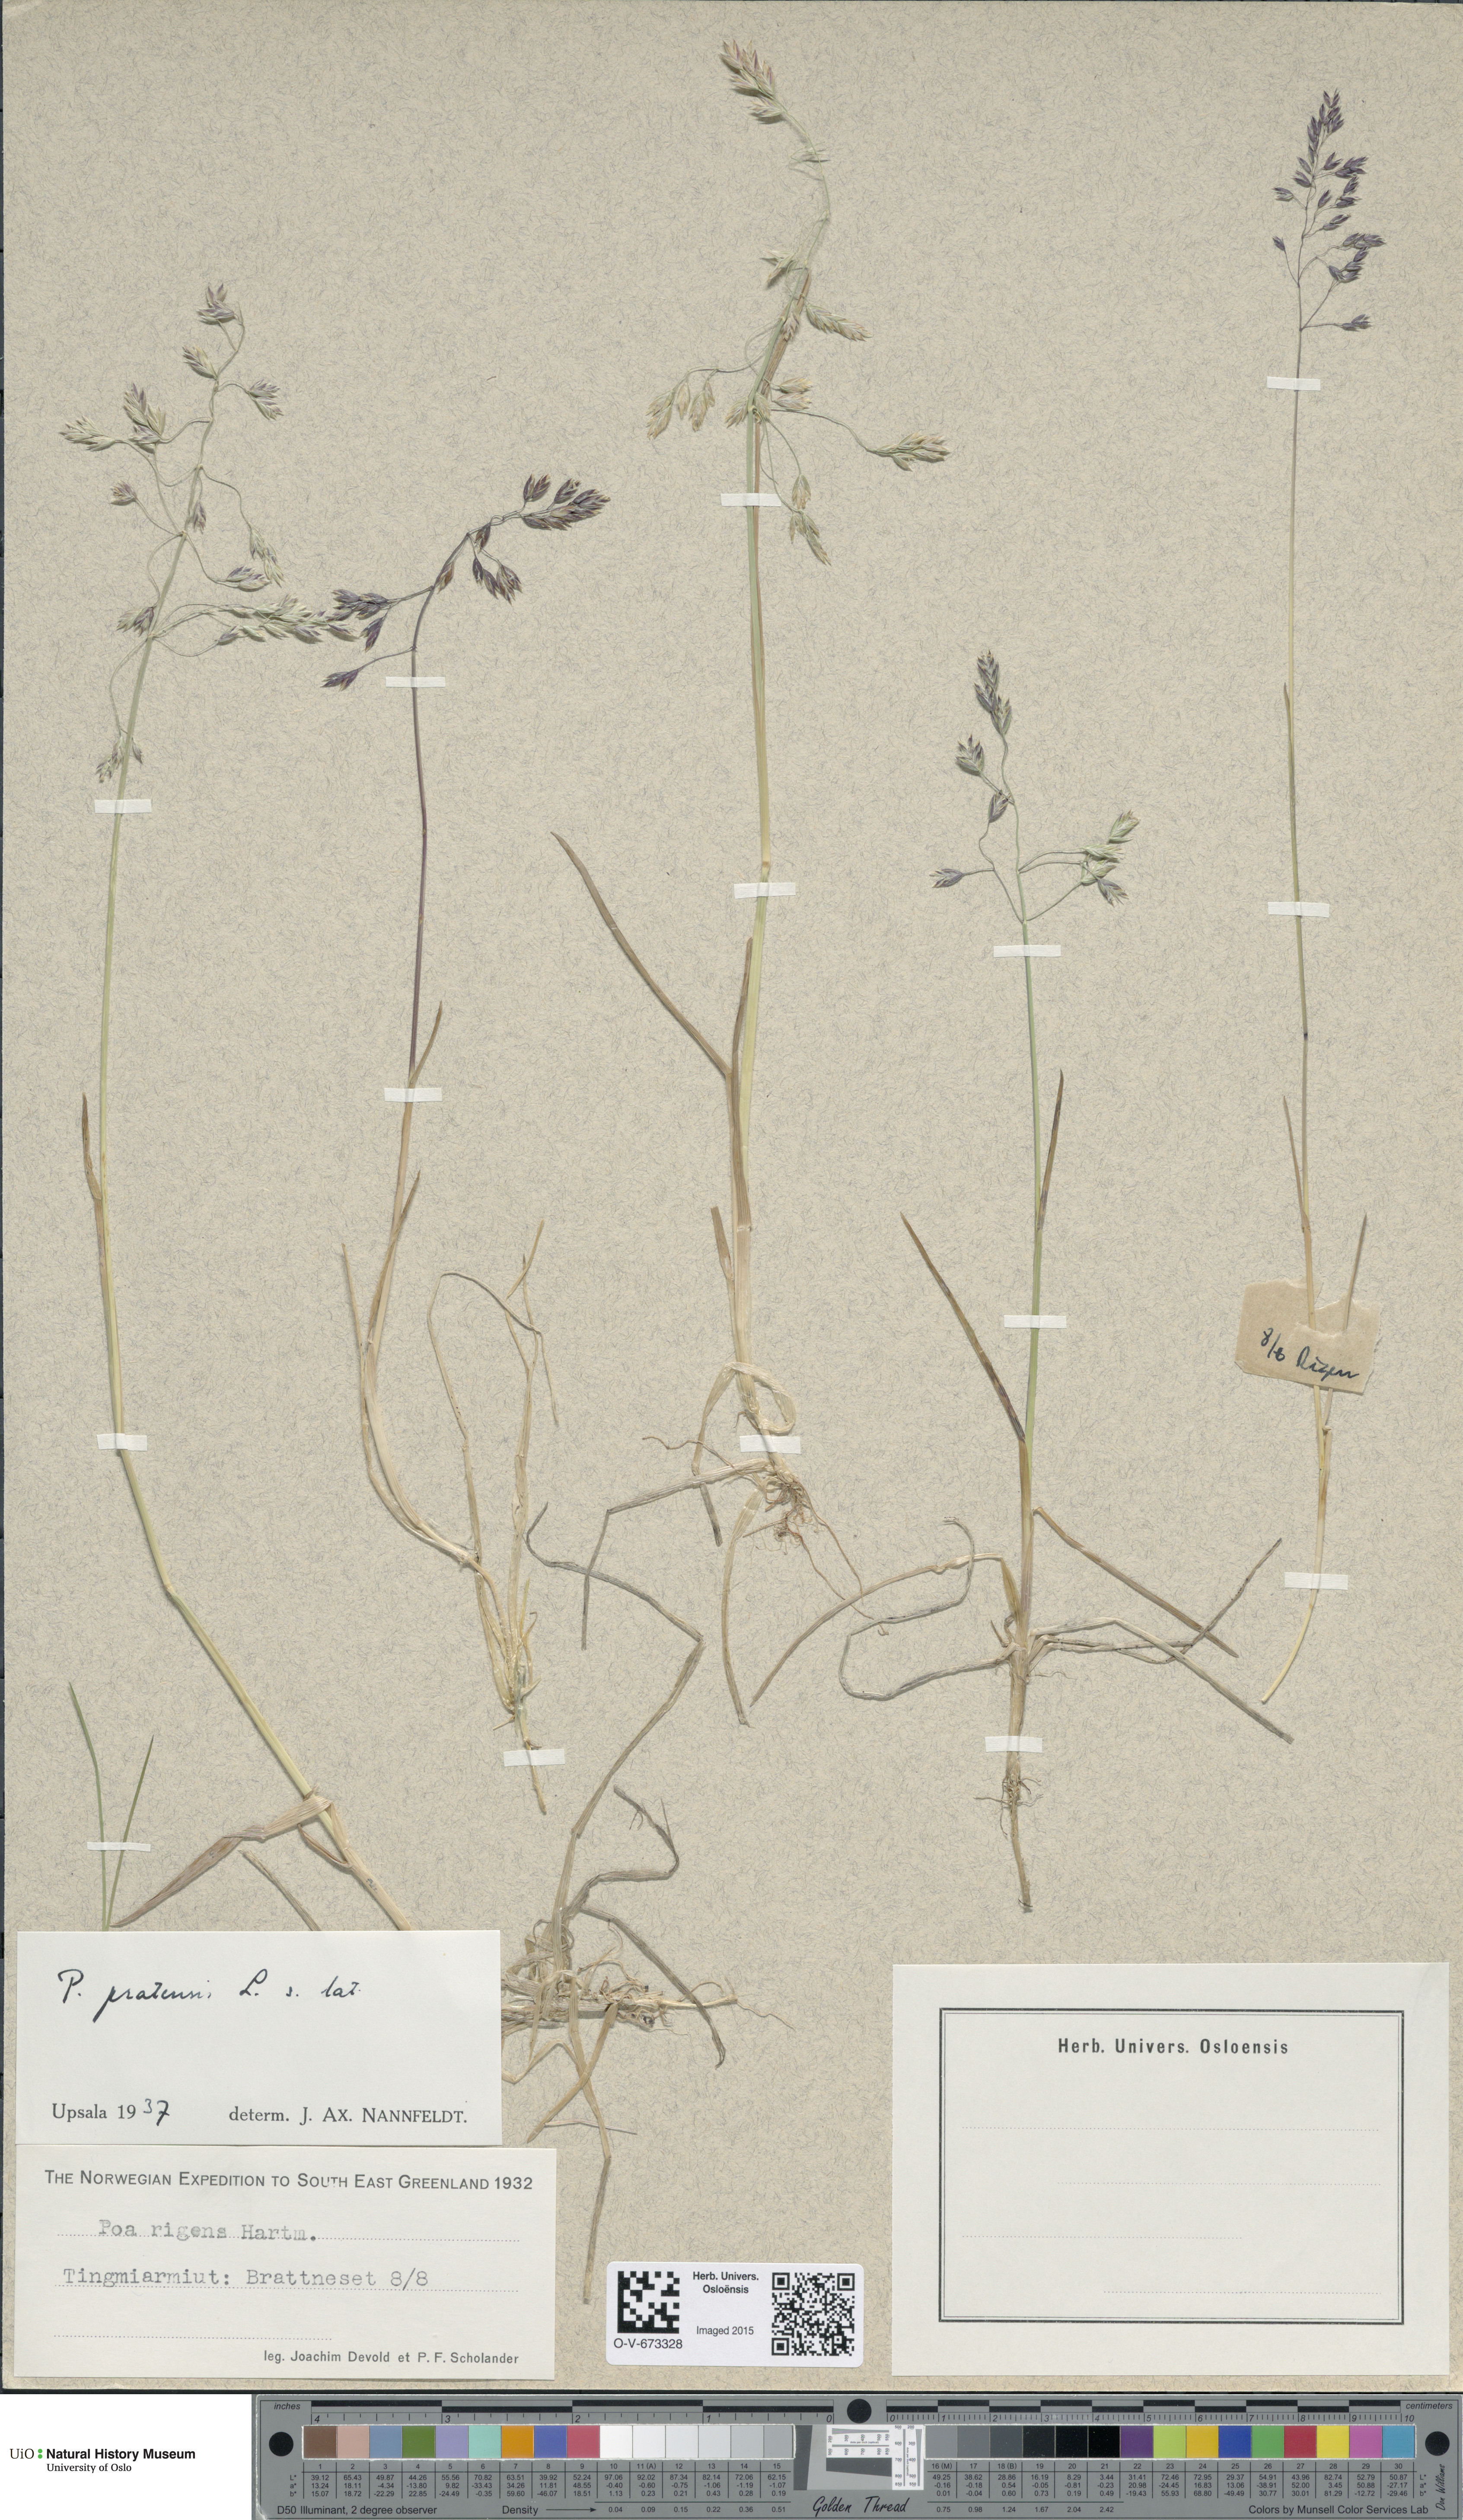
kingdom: Plantae
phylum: Tracheophyta
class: Liliopsida
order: Poales
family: Poaceae
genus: Poa
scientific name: Poa pratensis
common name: Kentucky bluegrass
